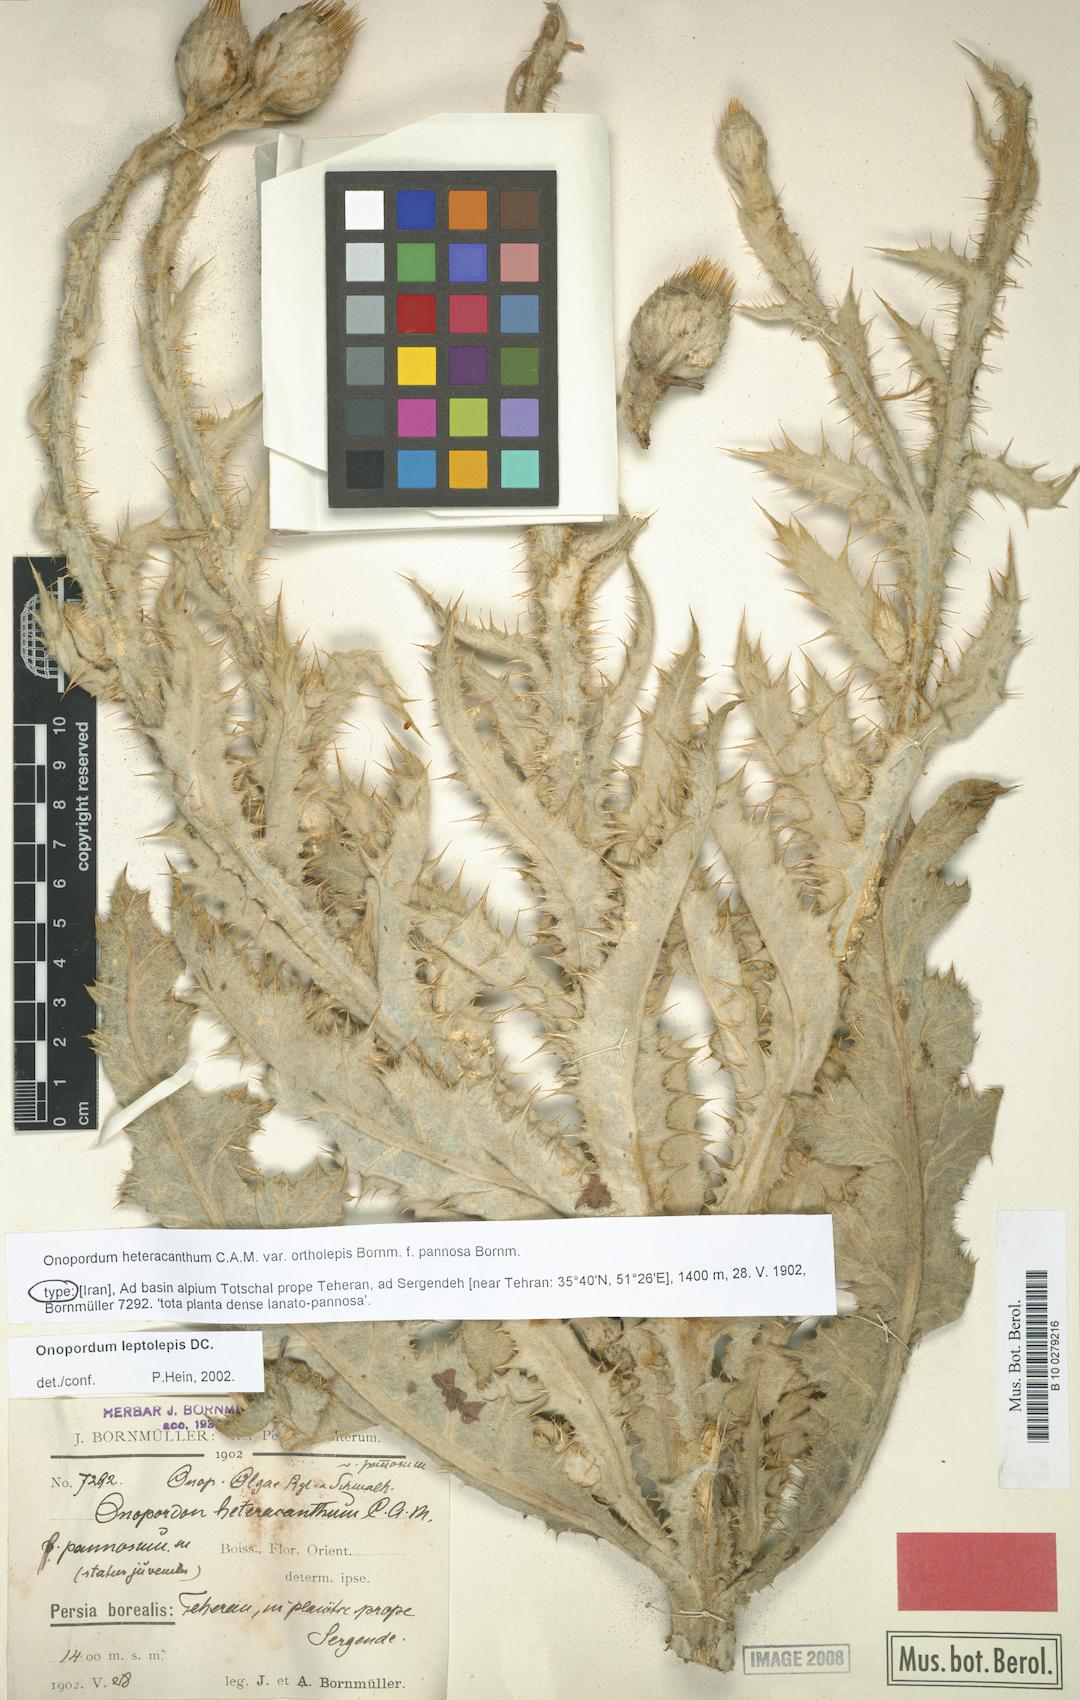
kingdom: Plantae
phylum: Tracheophyta
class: Magnoliopsida
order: Asterales
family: Asteraceae
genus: Onopordum
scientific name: Onopordum leptolepis
